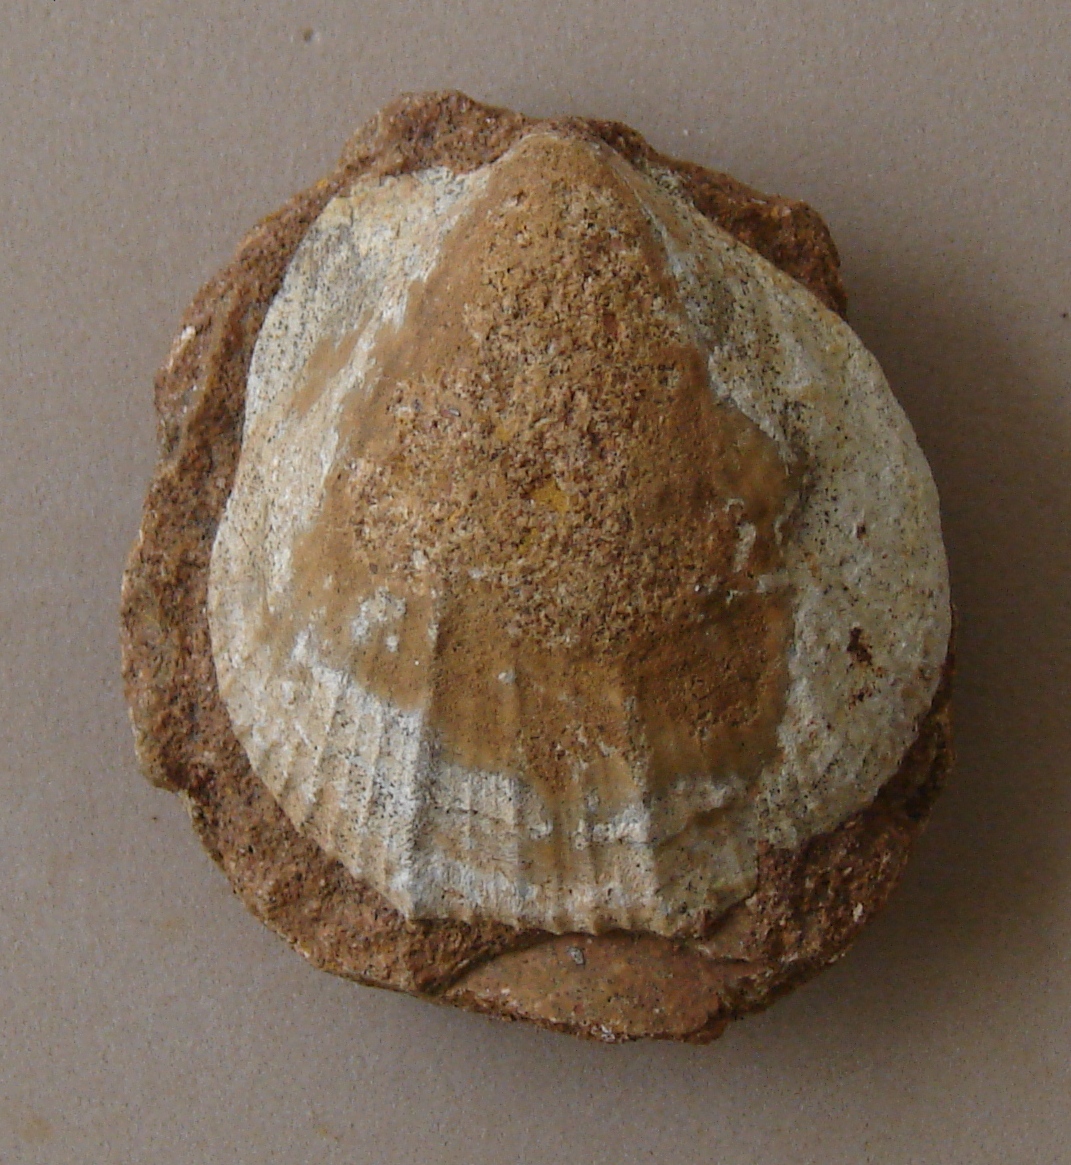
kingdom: Animalia
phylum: Mollusca
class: Bivalvia
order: Pectinida
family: Pectinidae
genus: Eopecten
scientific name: Eopecten tuberculosus
